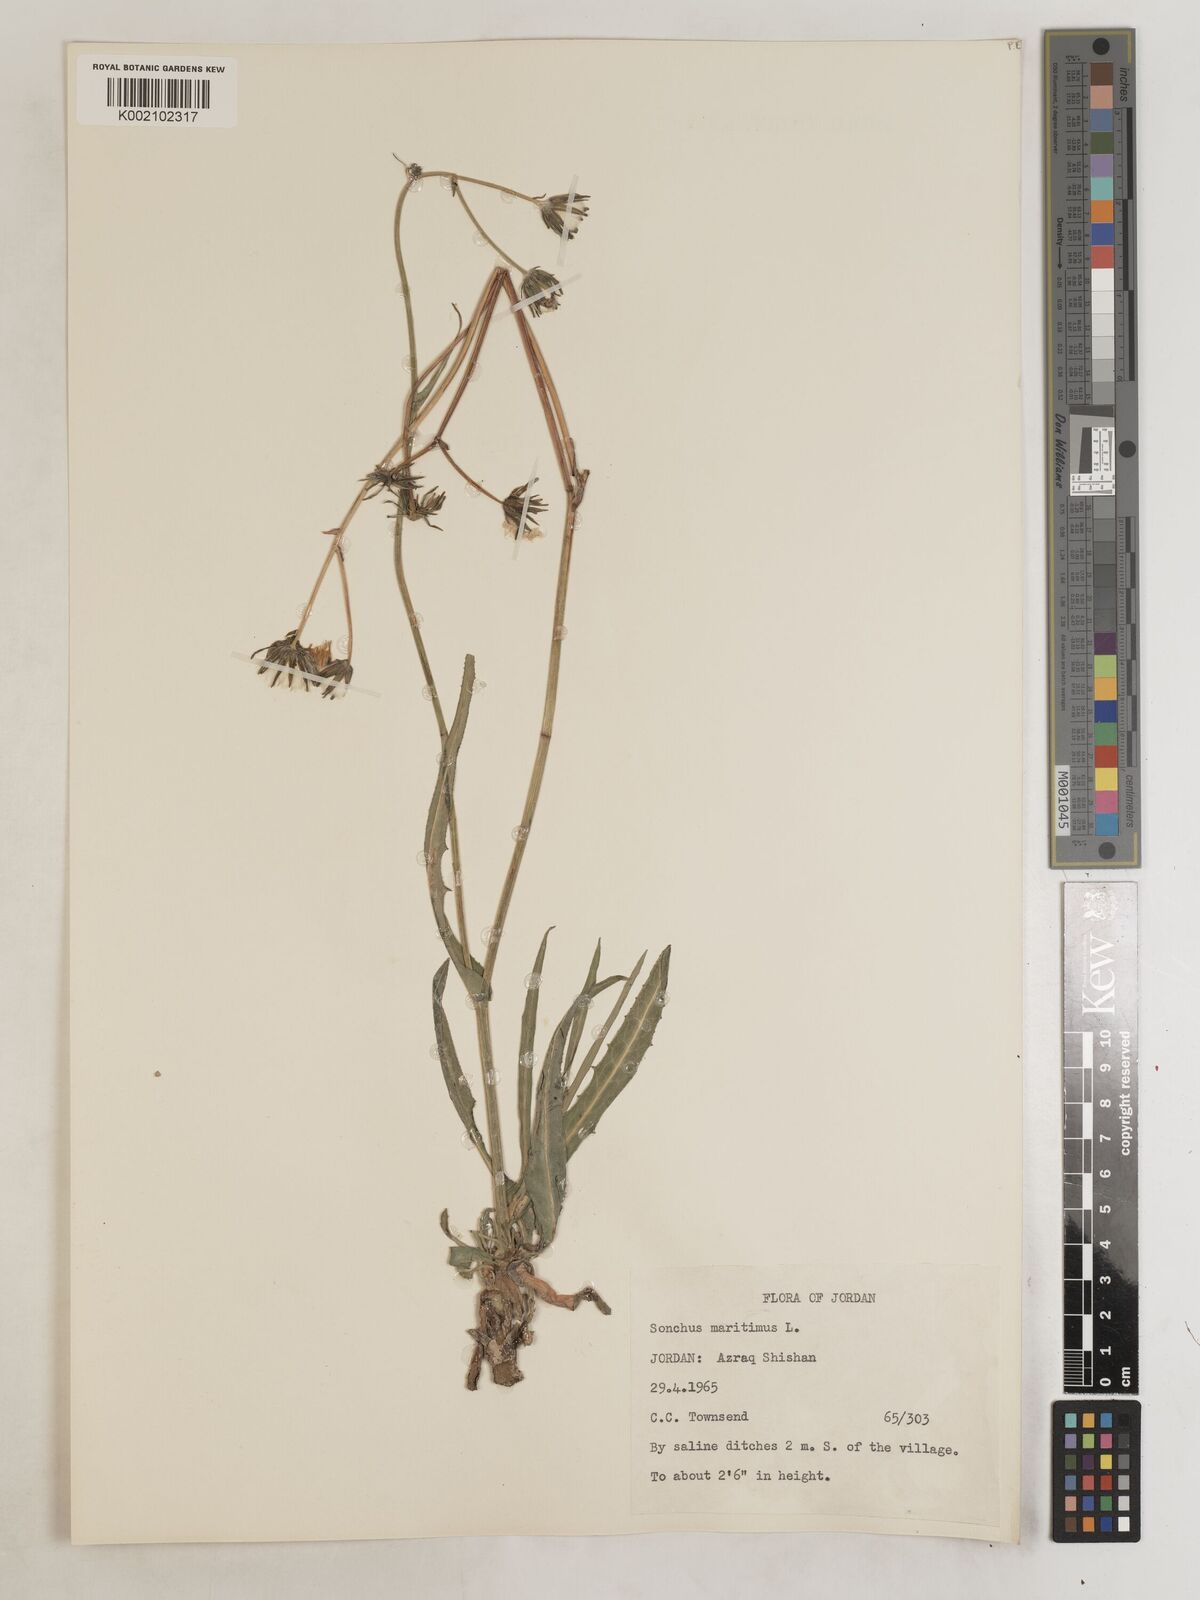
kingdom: Plantae
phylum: Tracheophyta
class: Magnoliopsida
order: Asterales
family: Asteraceae
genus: Sonchus
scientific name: Sonchus maritimus
